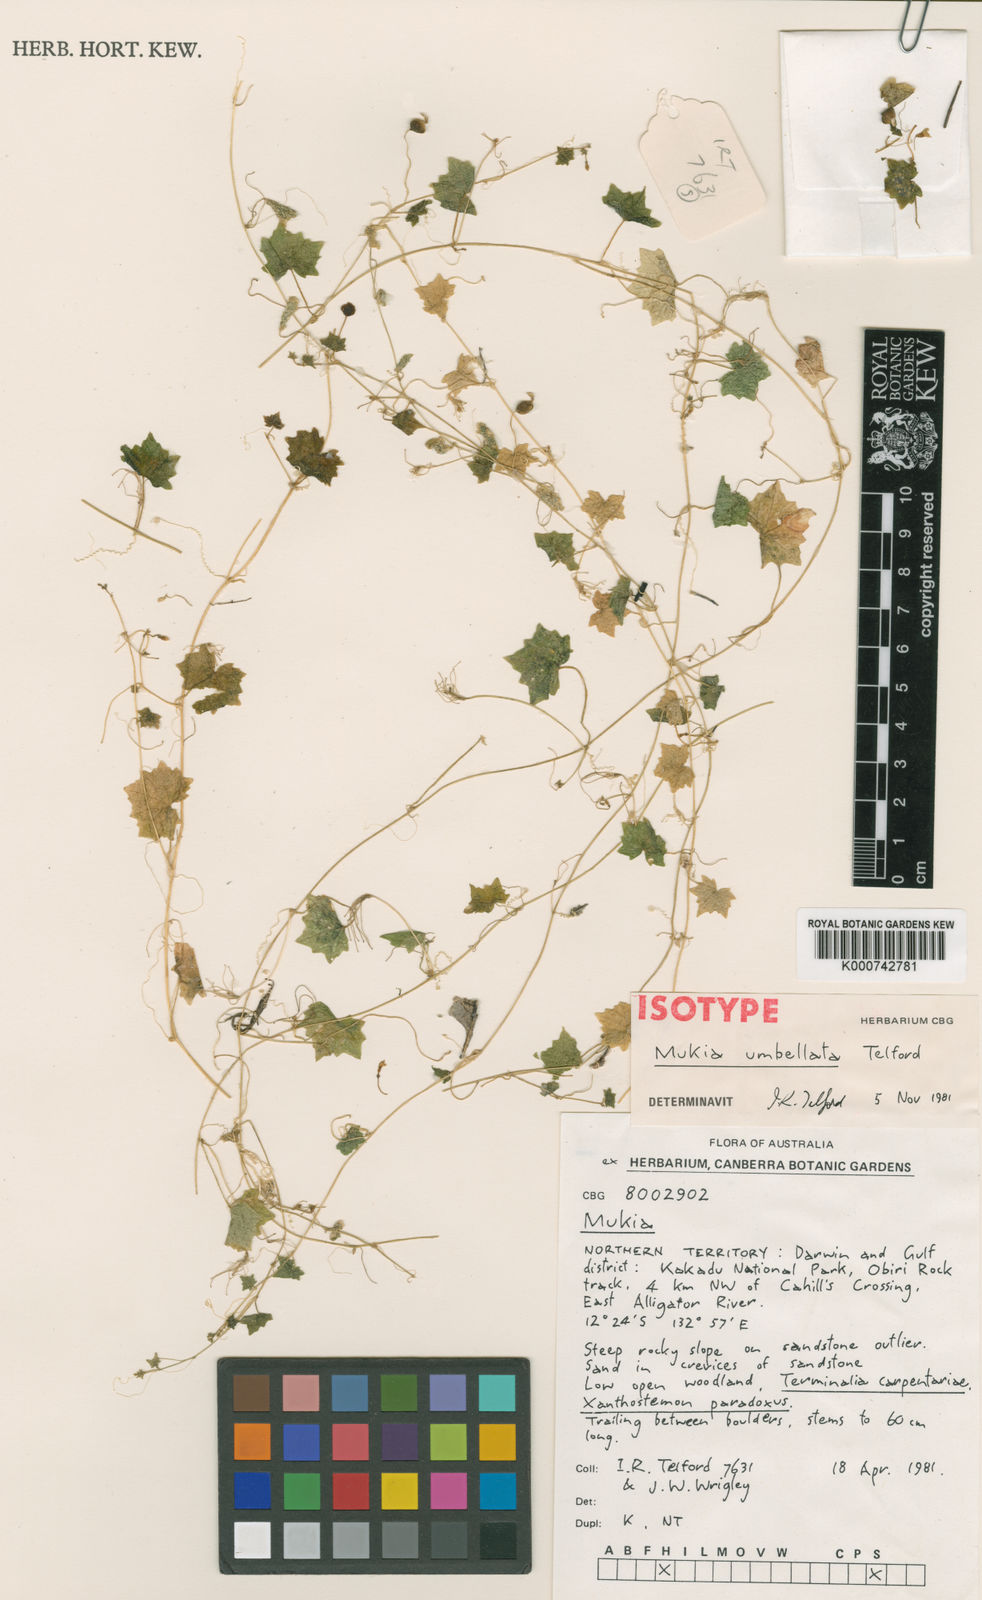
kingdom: Plantae
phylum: Tracheophyta
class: Magnoliopsida
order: Cucurbitales
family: Cucurbitaceae
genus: Cucumis
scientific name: Cucumis umbellatus
